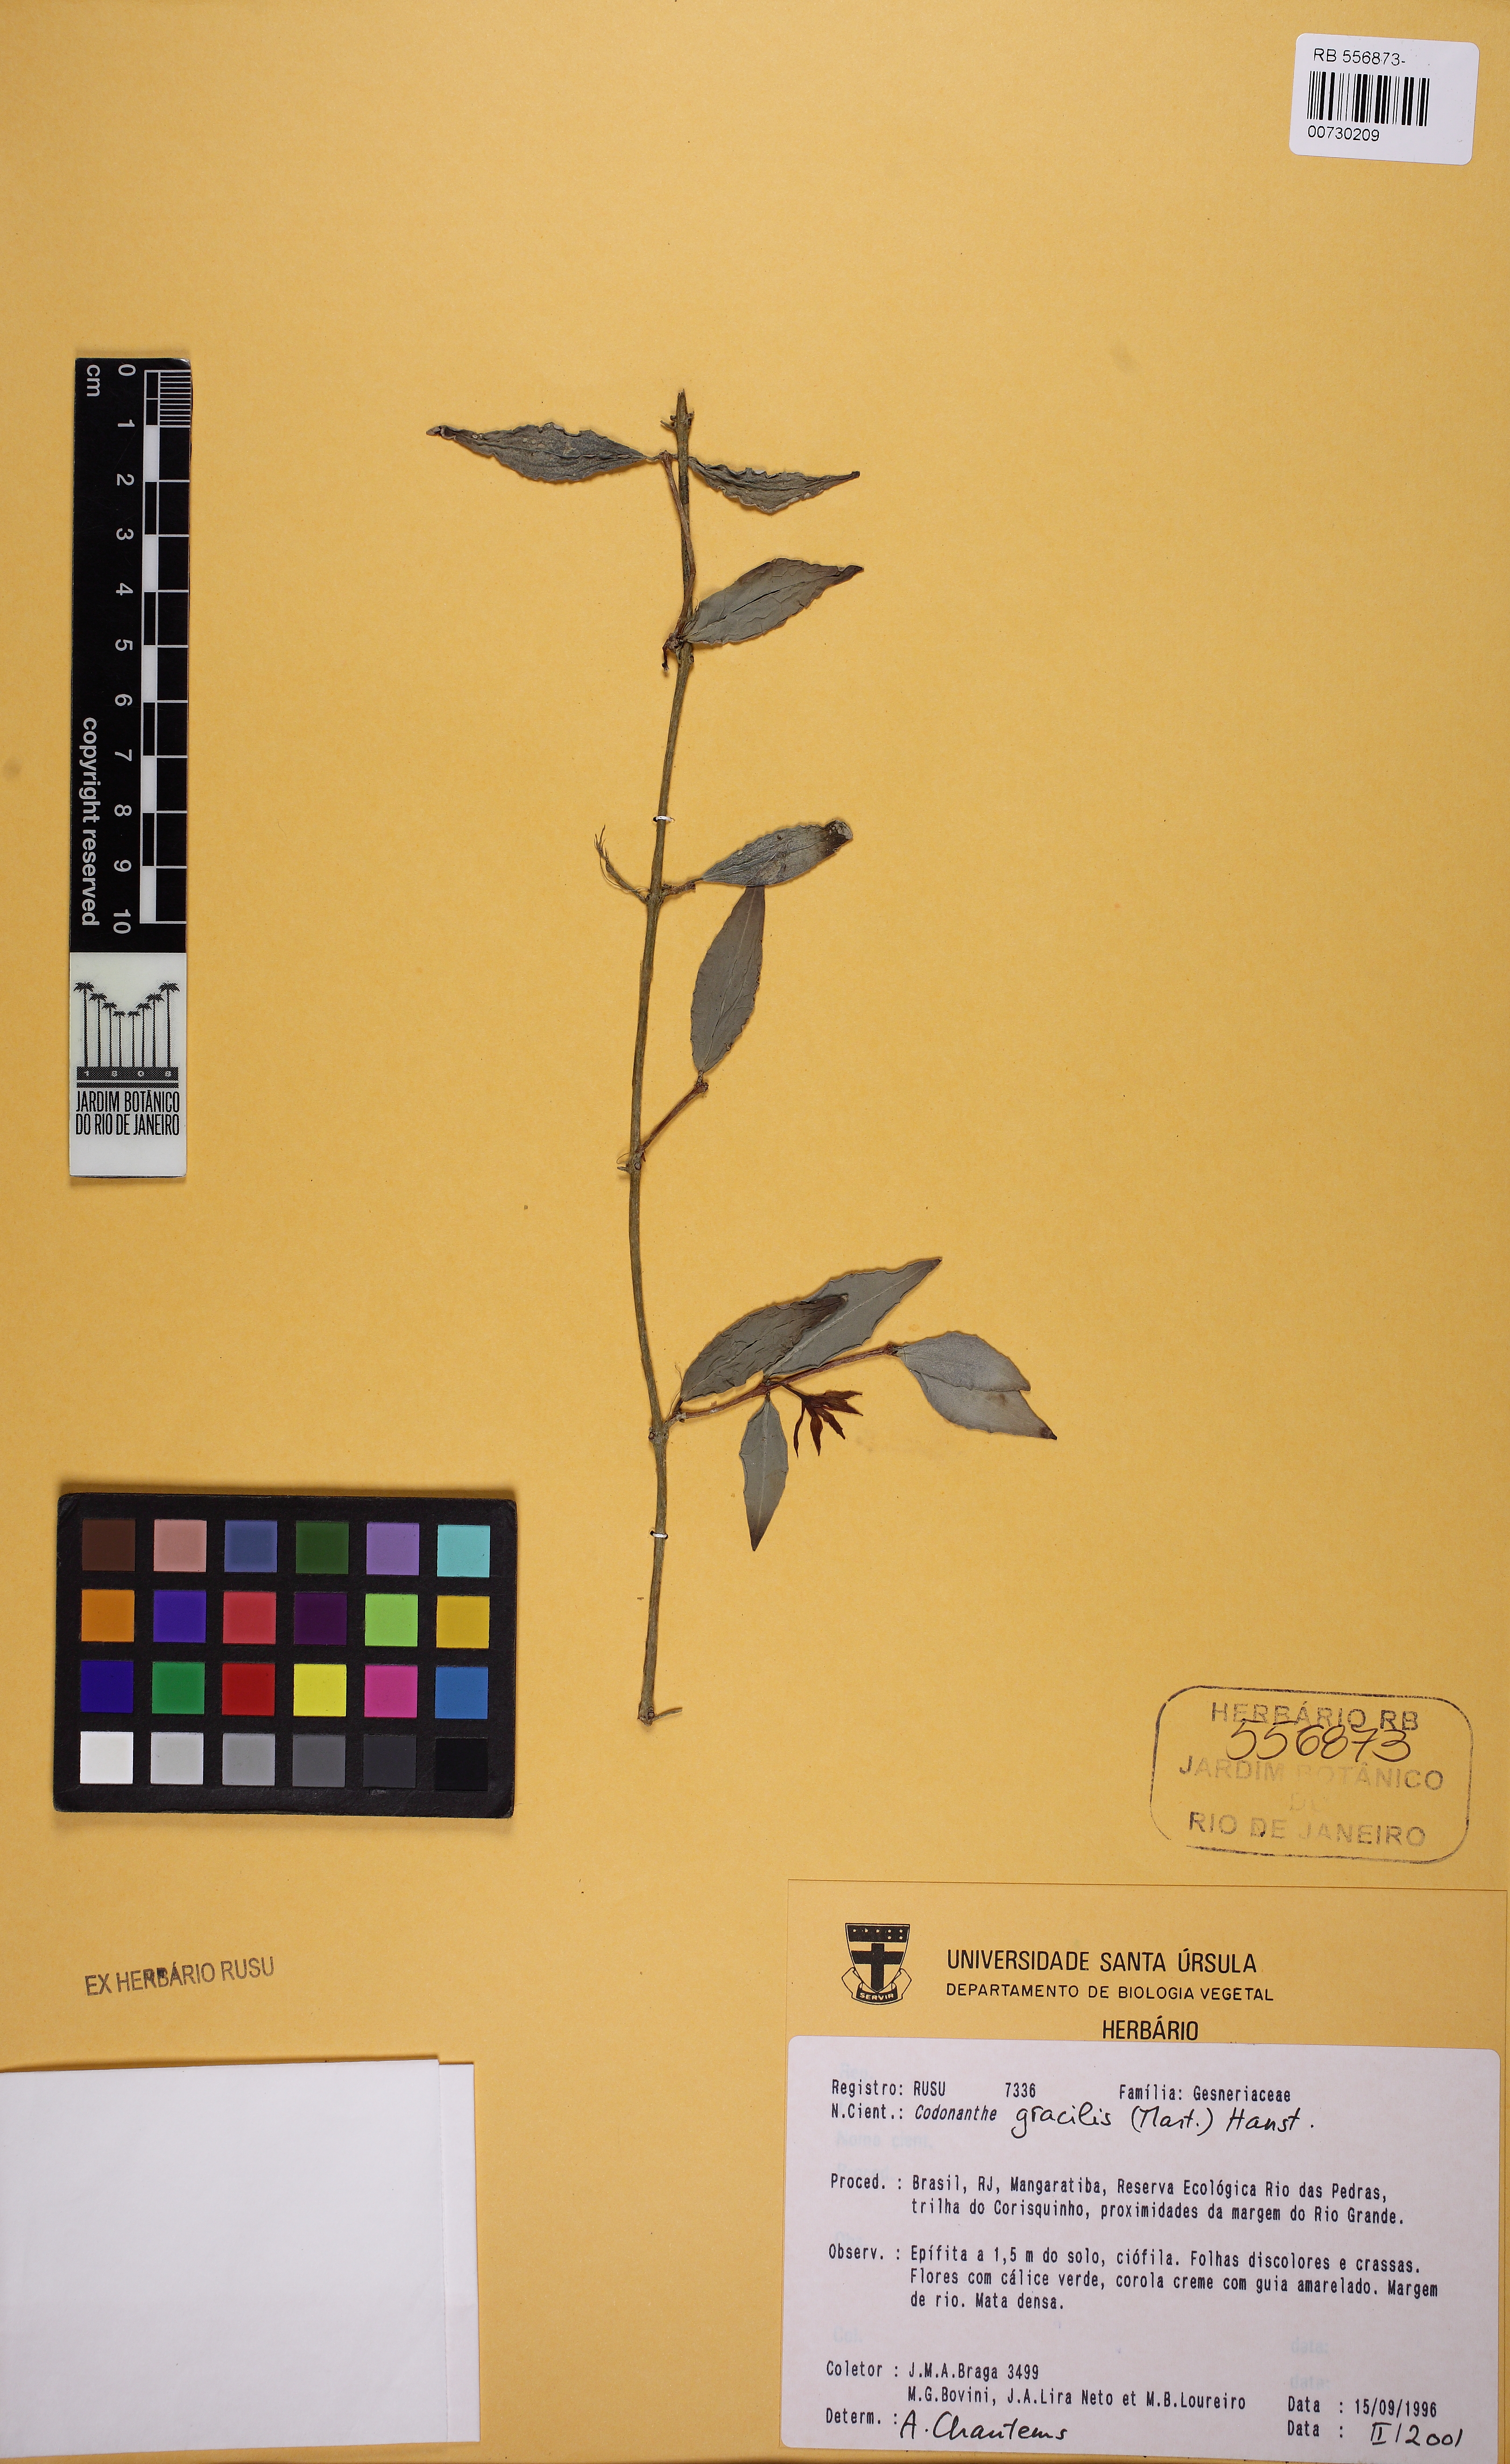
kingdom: Plantae
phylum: Tracheophyta
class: Magnoliopsida
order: Lamiales
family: Gesneriaceae
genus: Codonanthe
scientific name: Codonanthe gracilis
